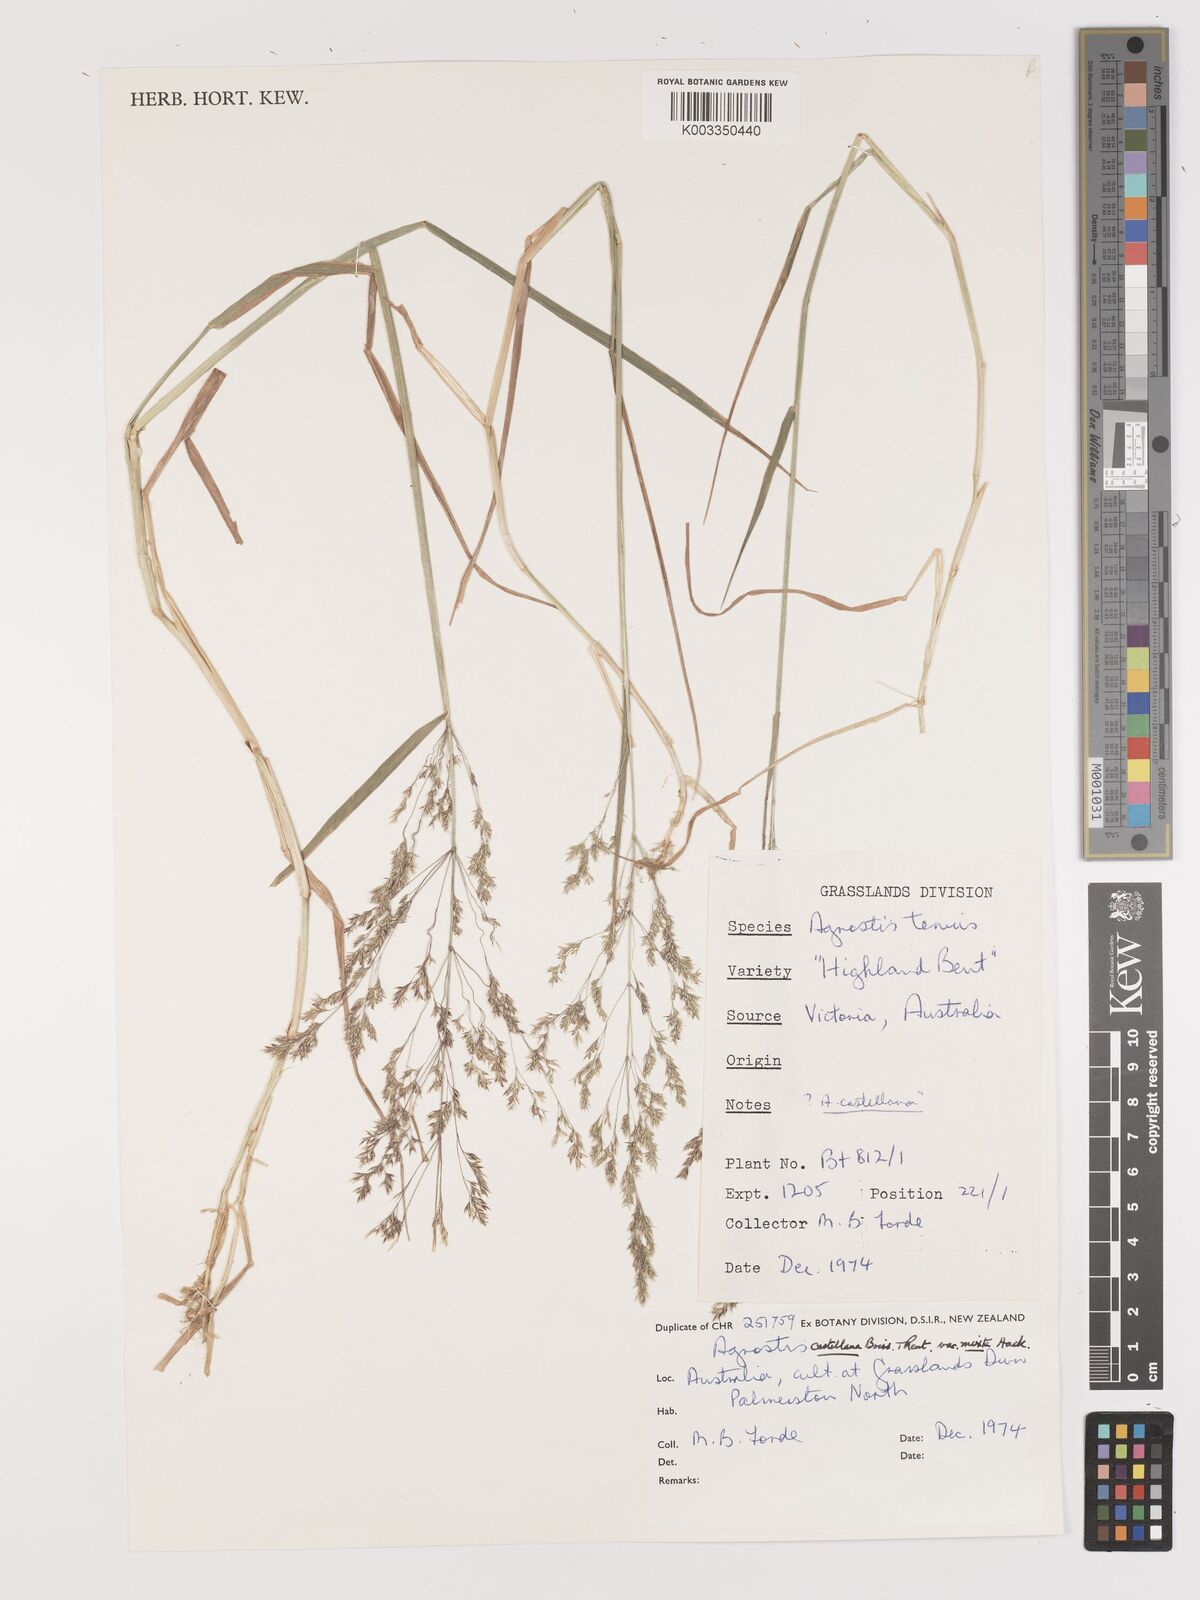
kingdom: Plantae
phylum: Tracheophyta
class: Liliopsida
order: Poales
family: Poaceae
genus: Agrostis
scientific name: Agrostis castellana
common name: Highland bent
